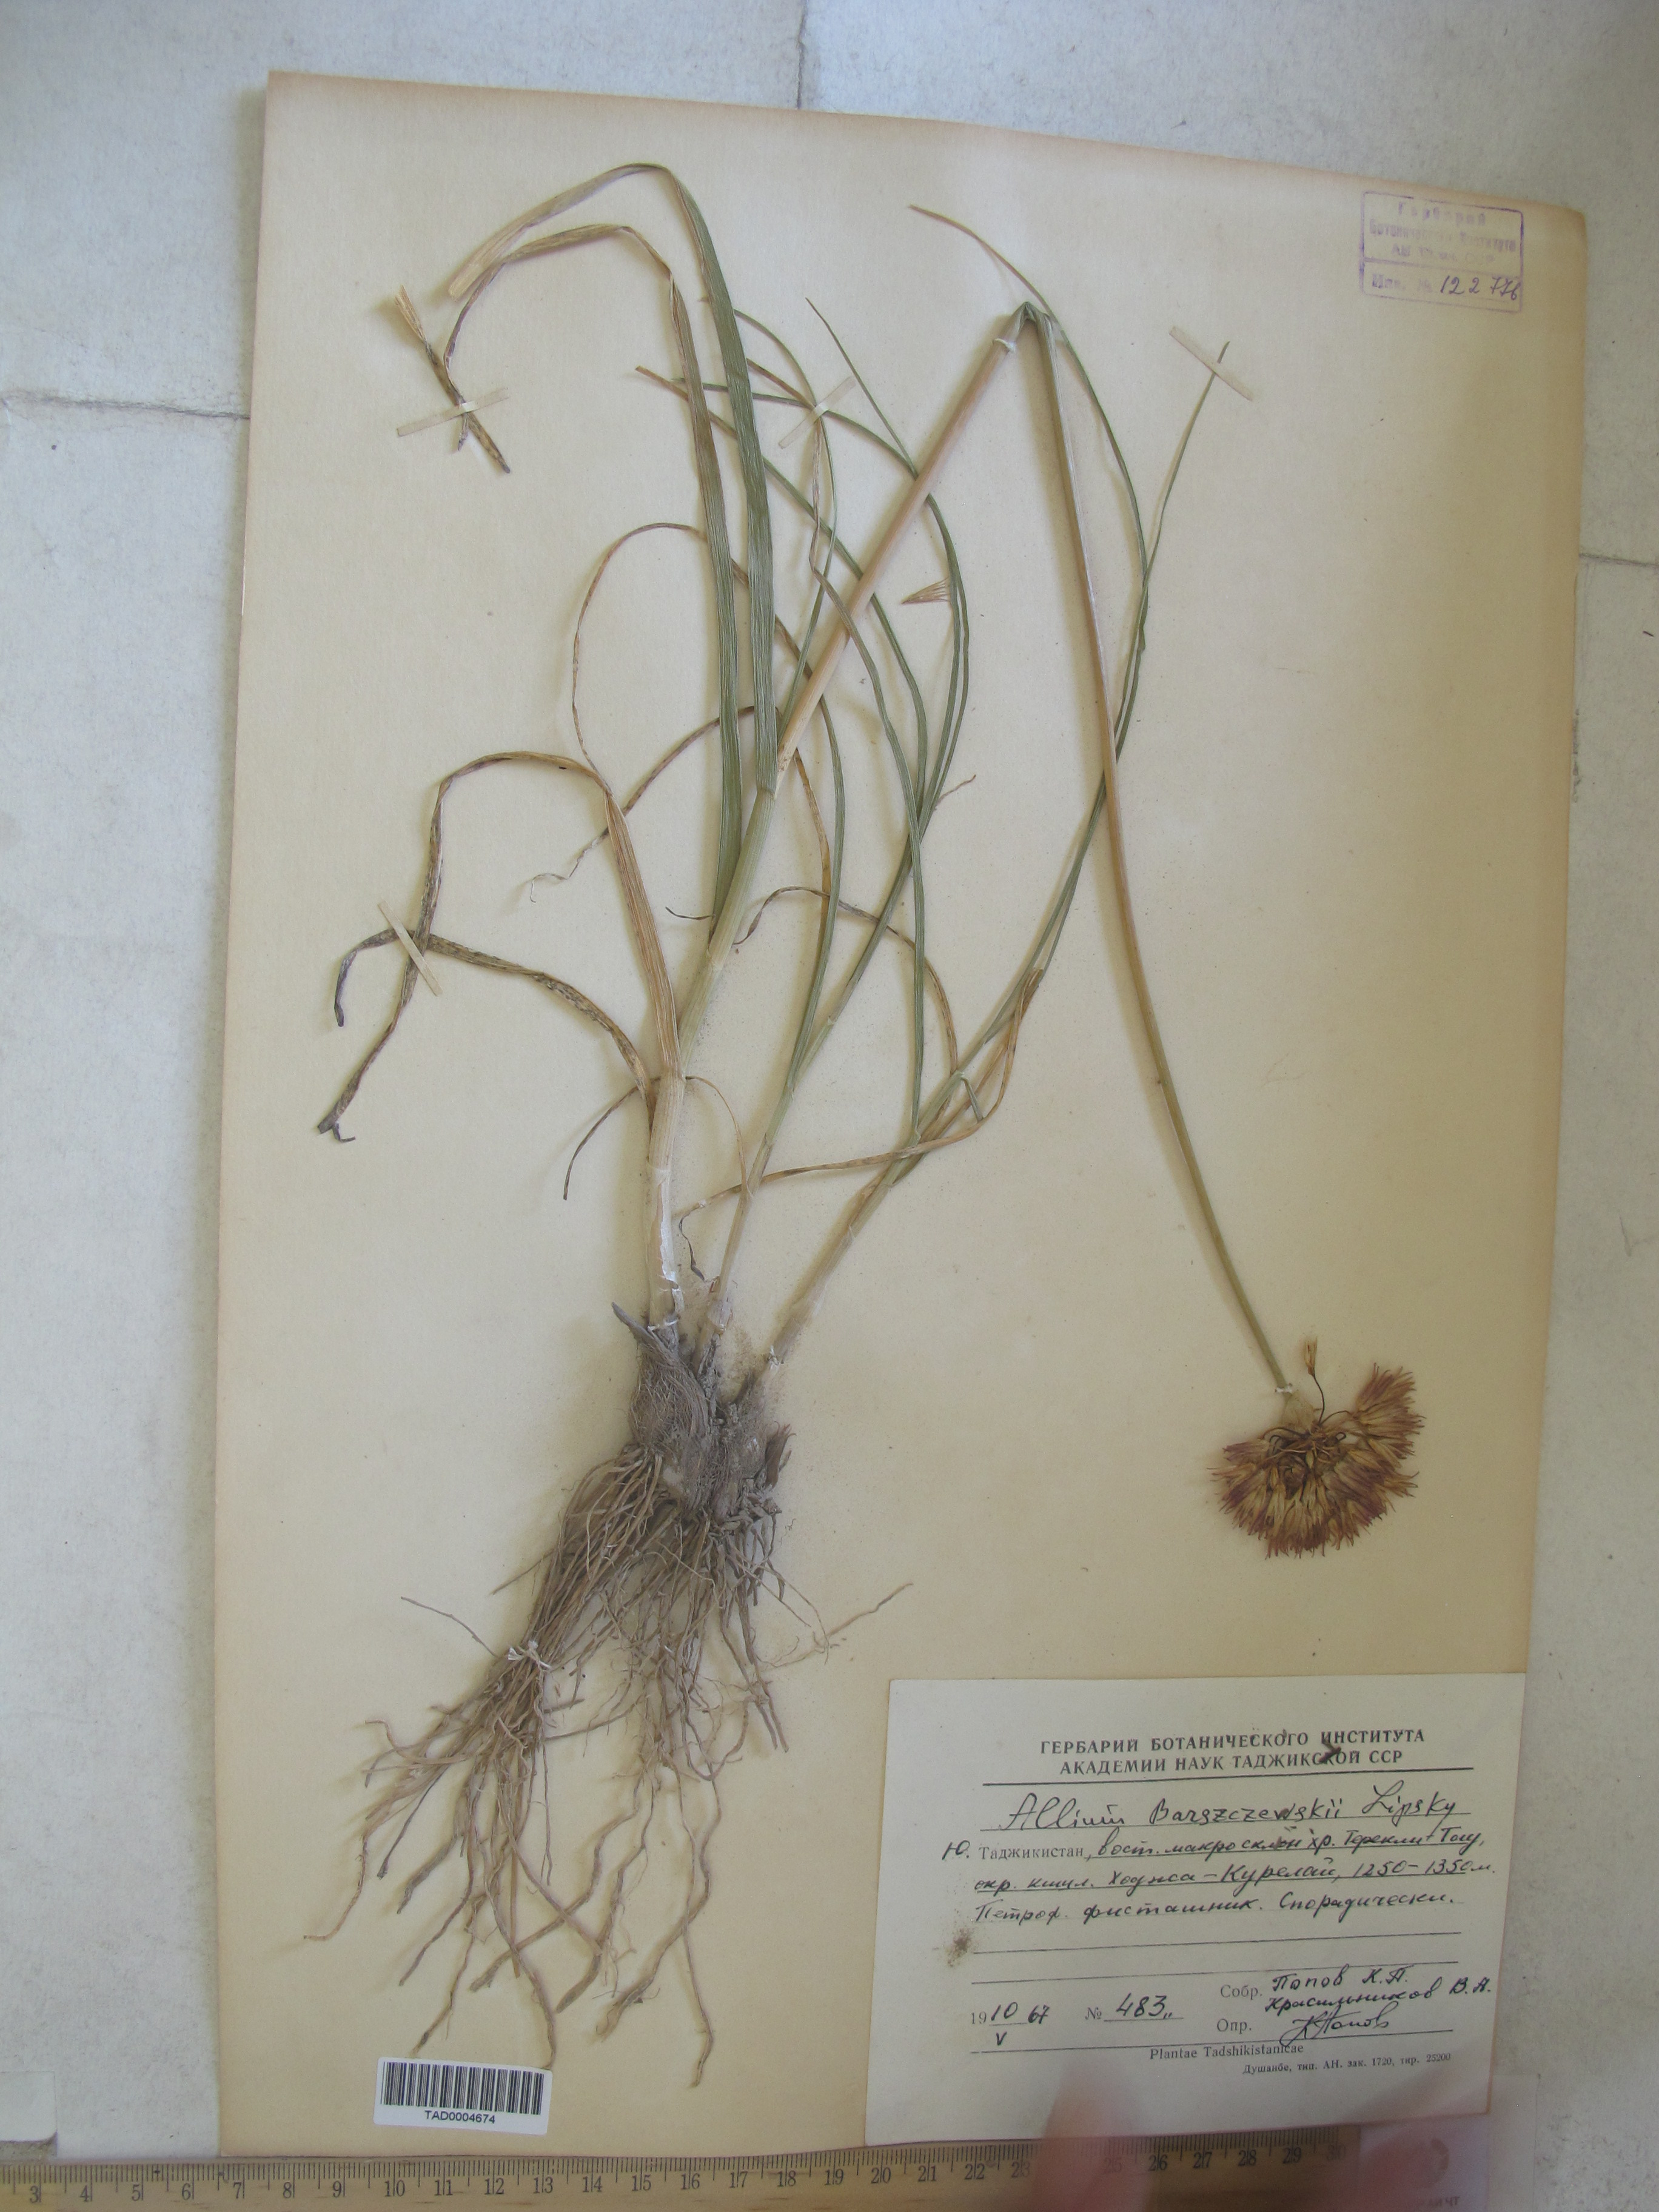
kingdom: Plantae
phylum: Tracheophyta
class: Liliopsida
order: Asparagales
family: Amaryllidaceae
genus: Allium
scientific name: Allium barsczewskii
